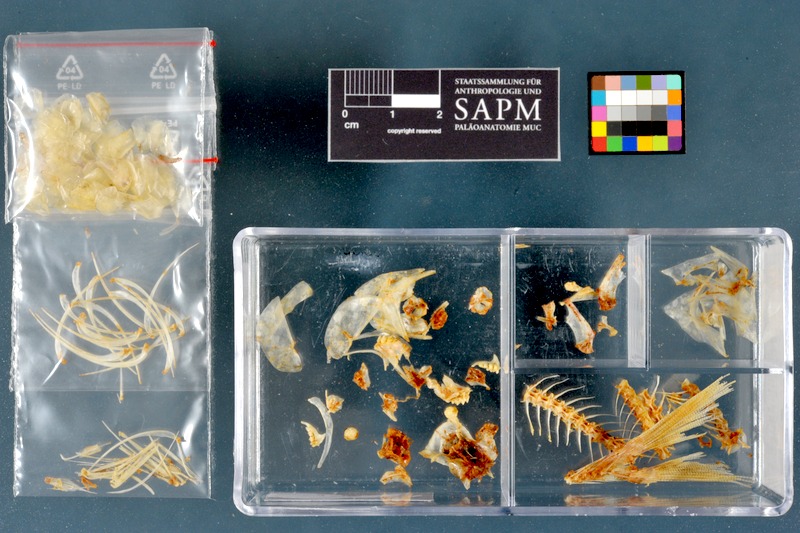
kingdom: Animalia
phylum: Chordata
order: Characiformes
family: Alestidae
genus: Brycinus
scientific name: Brycinus nurse
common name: Nurse tetra
